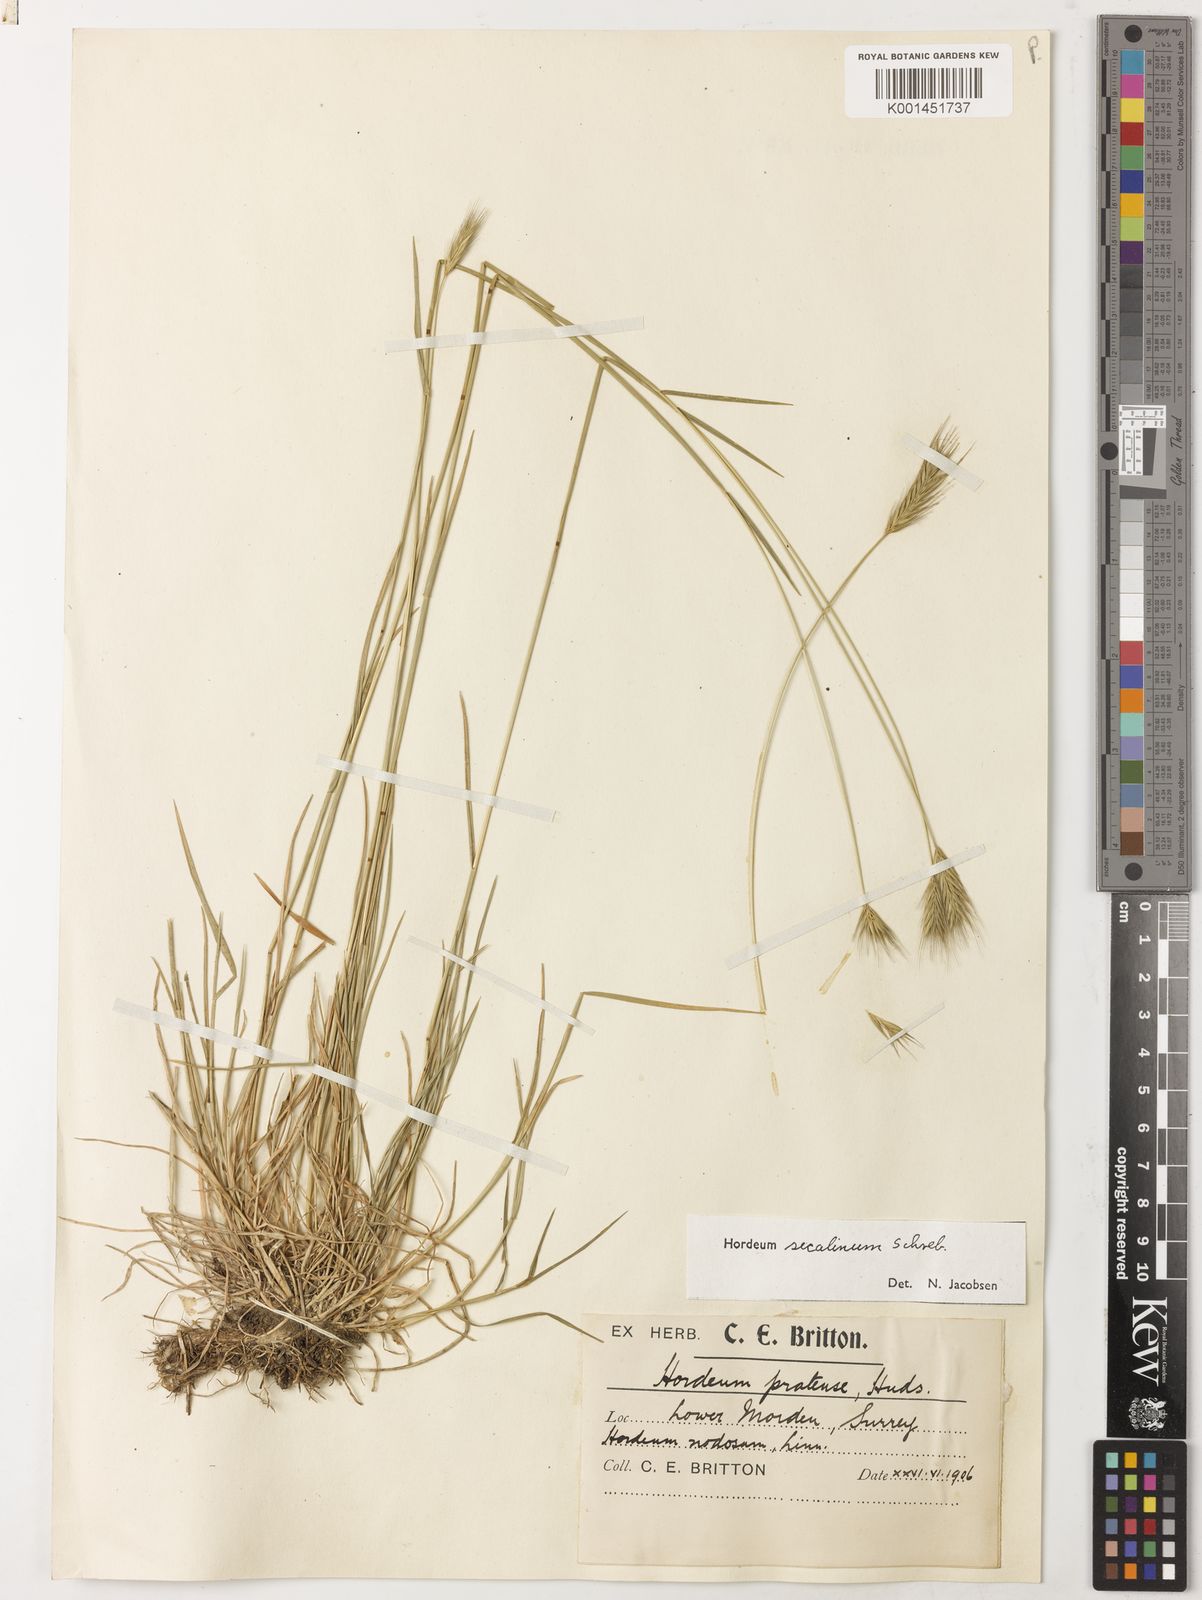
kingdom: Plantae
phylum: Tracheophyta
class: Liliopsida
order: Poales
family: Poaceae
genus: Hordeum
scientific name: Hordeum secalinum
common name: Meadow barley
